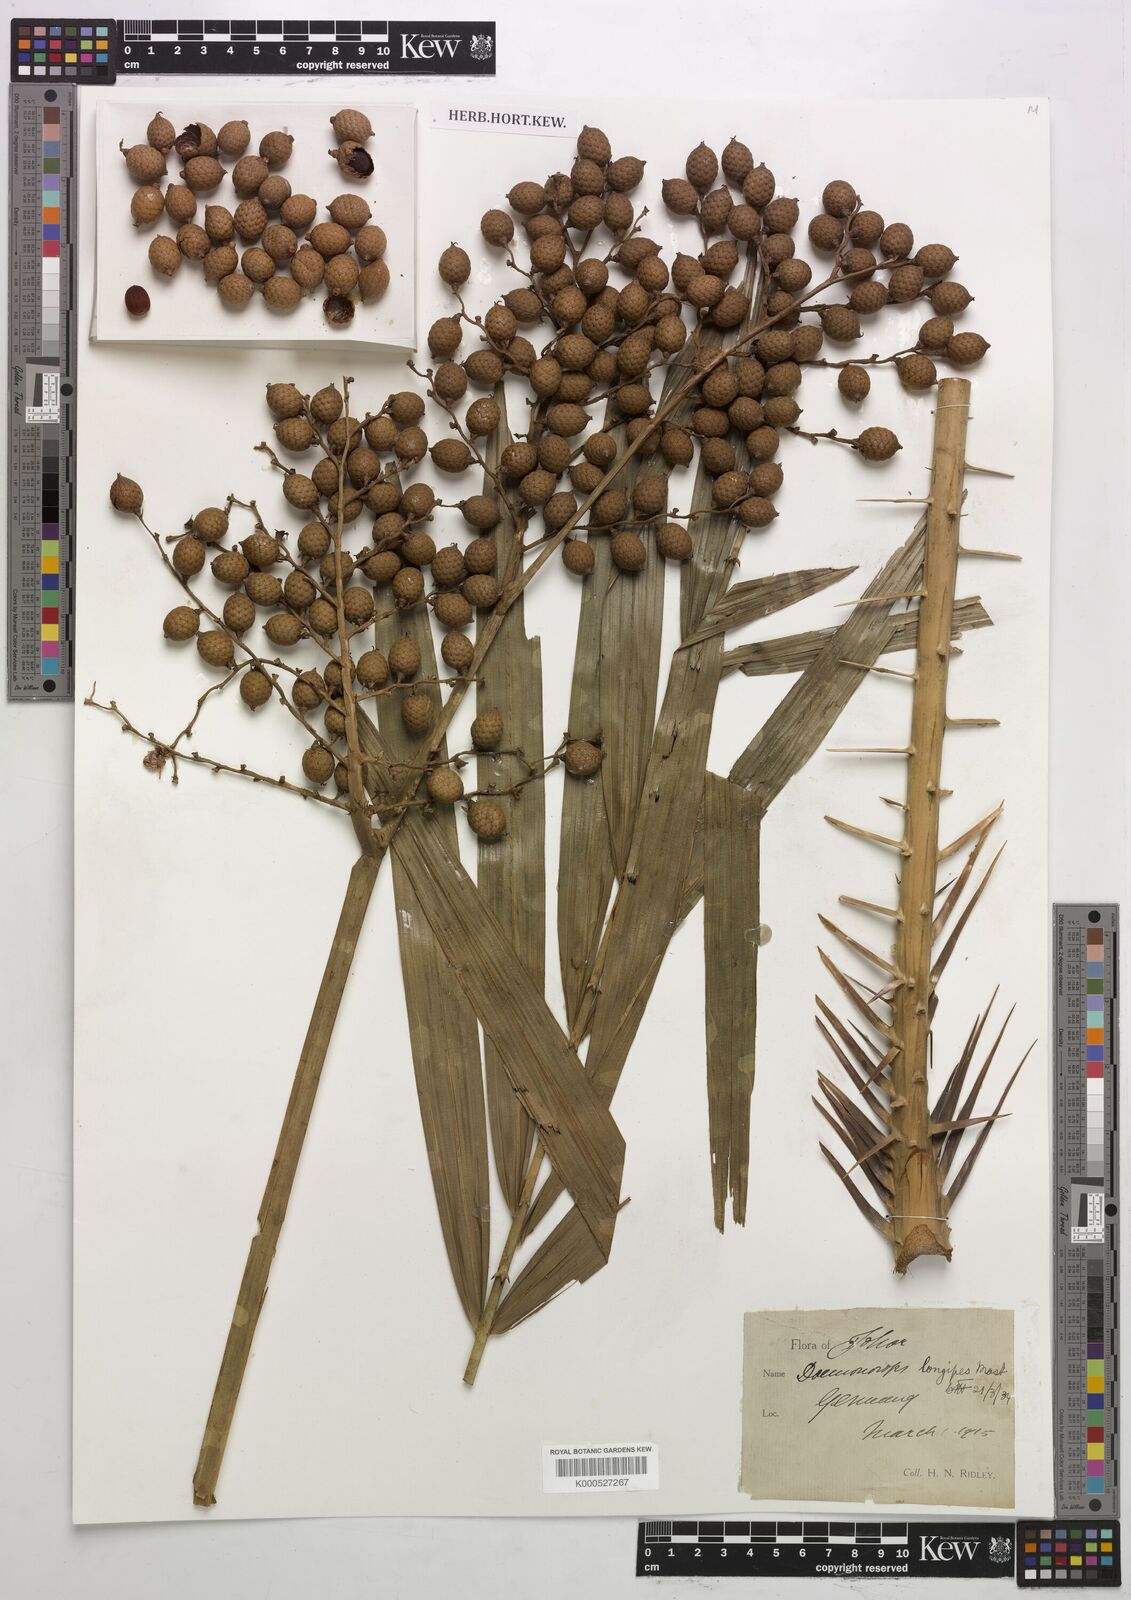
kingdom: Plantae
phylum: Tracheophyta
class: Liliopsida
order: Arecales
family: Arecaceae
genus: Calamus
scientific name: Calamus longipes
